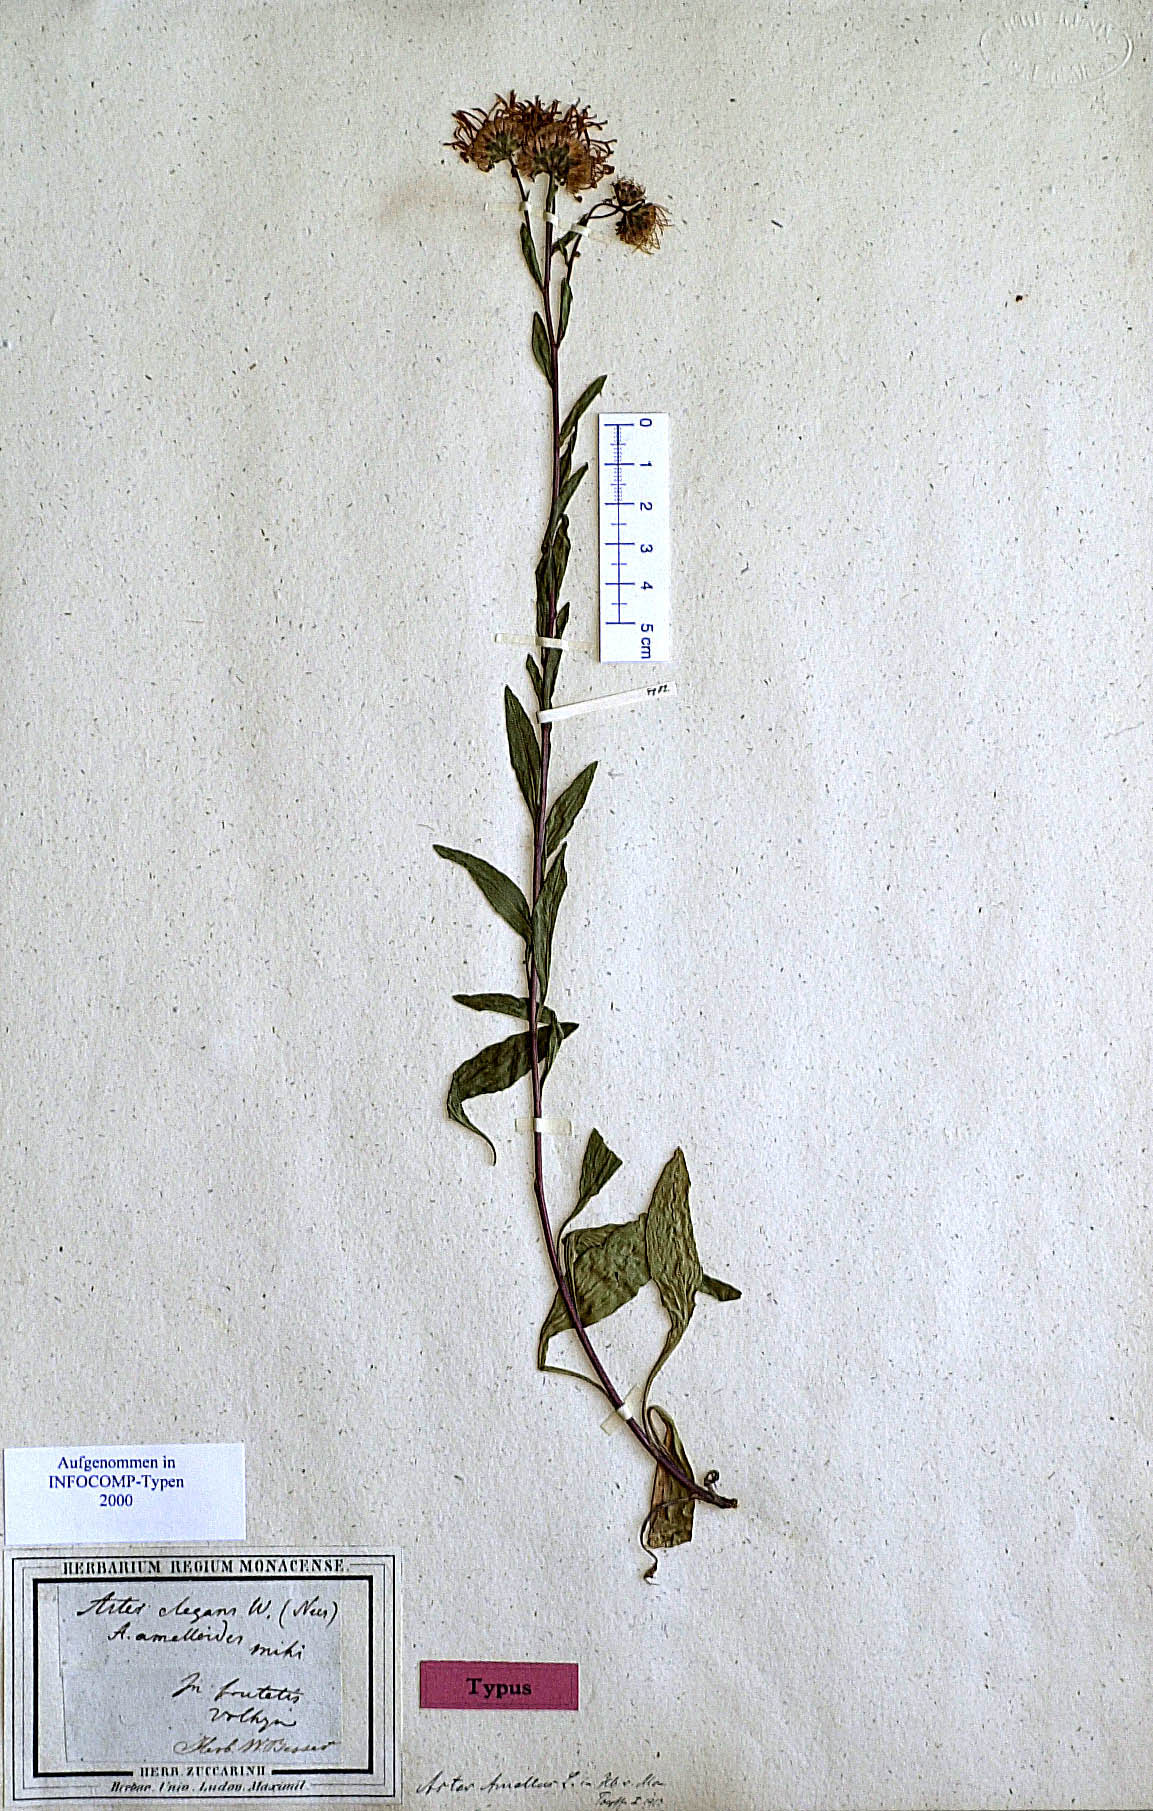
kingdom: Plantae
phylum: Tracheophyta
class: Magnoliopsida
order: Asterales
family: Asteraceae
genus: Aster
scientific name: Aster amellus
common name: European michaelmas daisy
